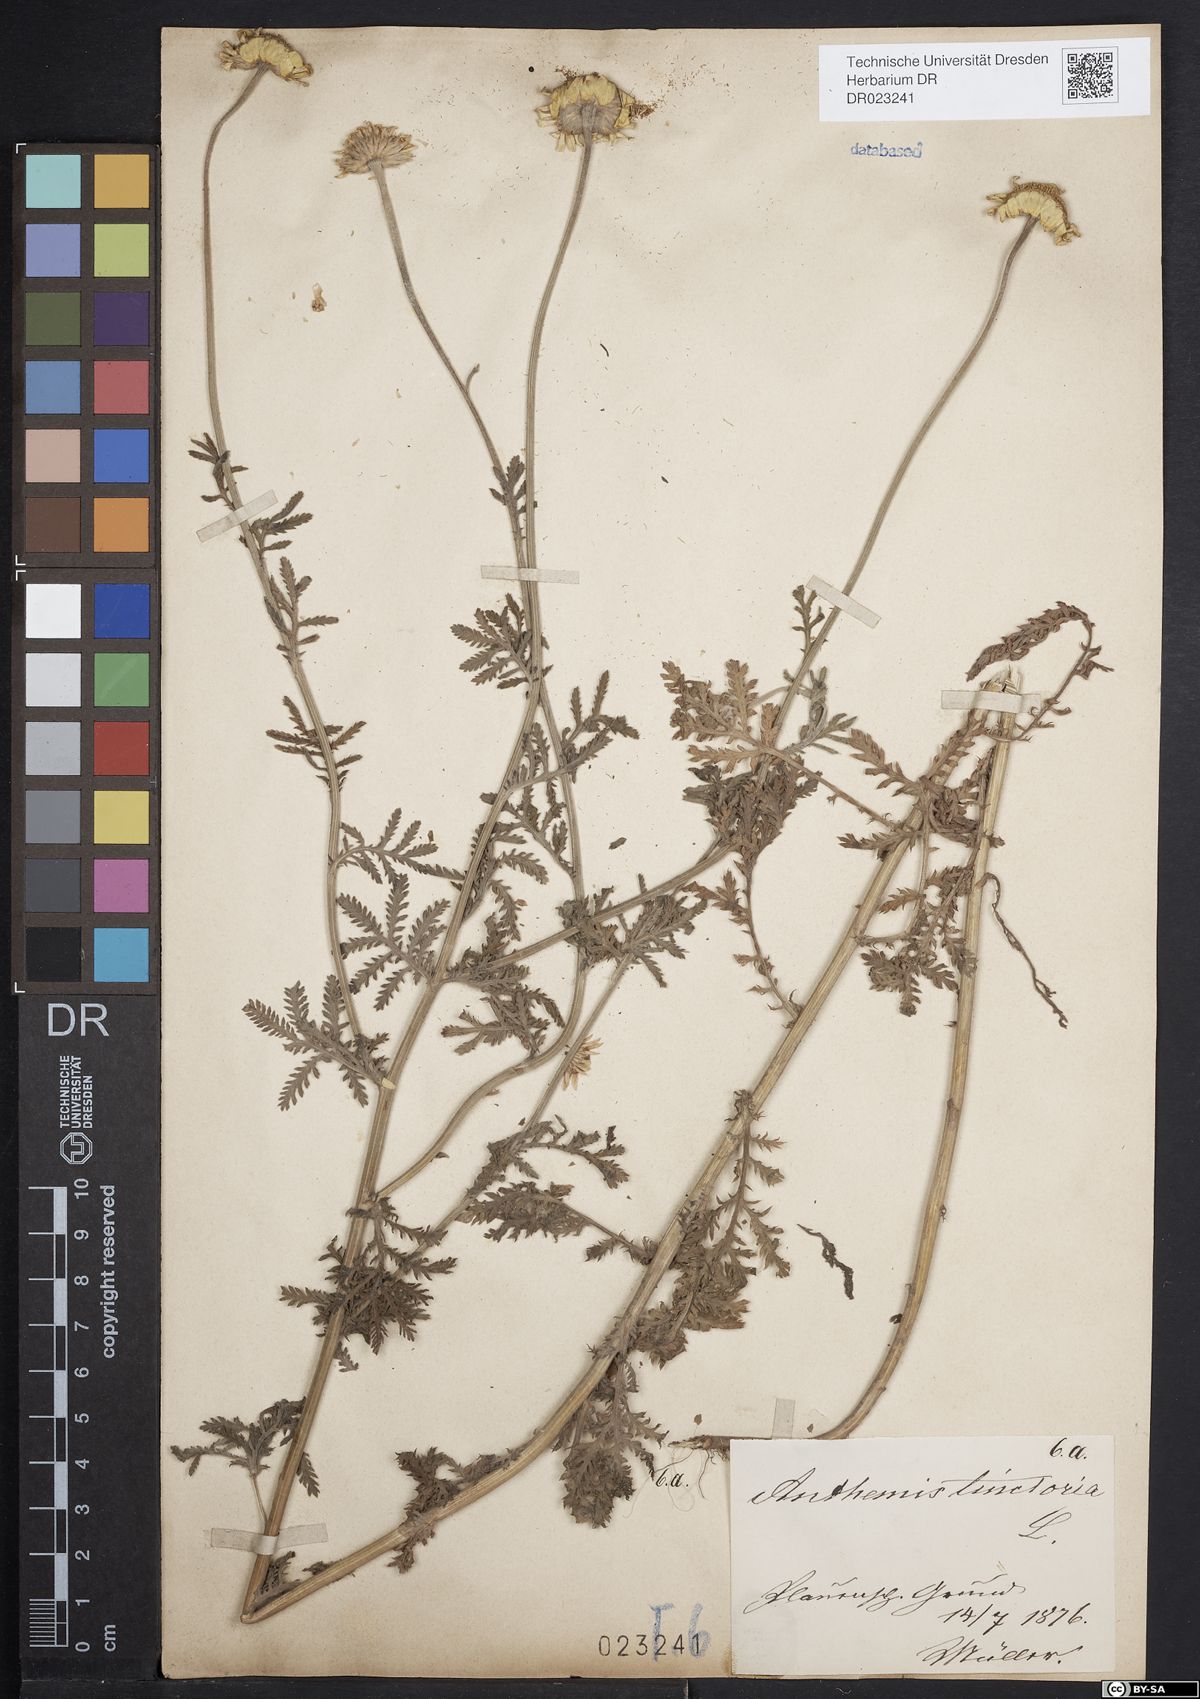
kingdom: Plantae
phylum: Tracheophyta
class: Magnoliopsida
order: Asterales
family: Asteraceae
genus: Cota
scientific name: Cota tinctoria
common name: Golden chamomile
